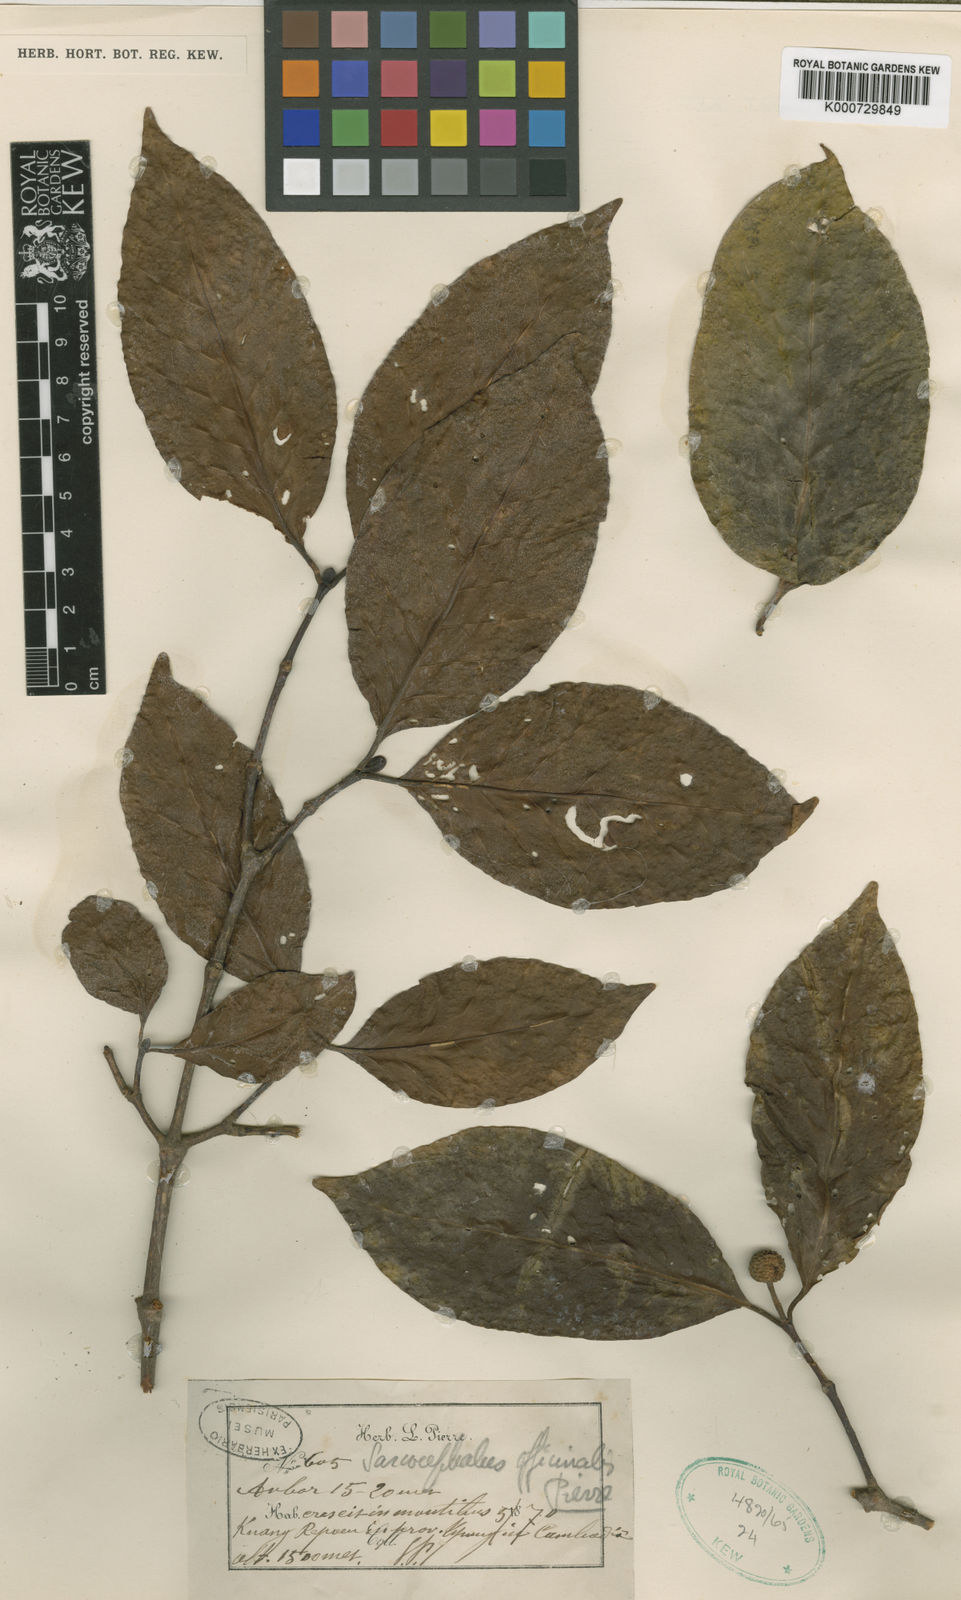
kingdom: Plantae
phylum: Tracheophyta
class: Magnoliopsida
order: Gentianales
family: Rubiaceae
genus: Nauclea
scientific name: Nauclea officinalis
